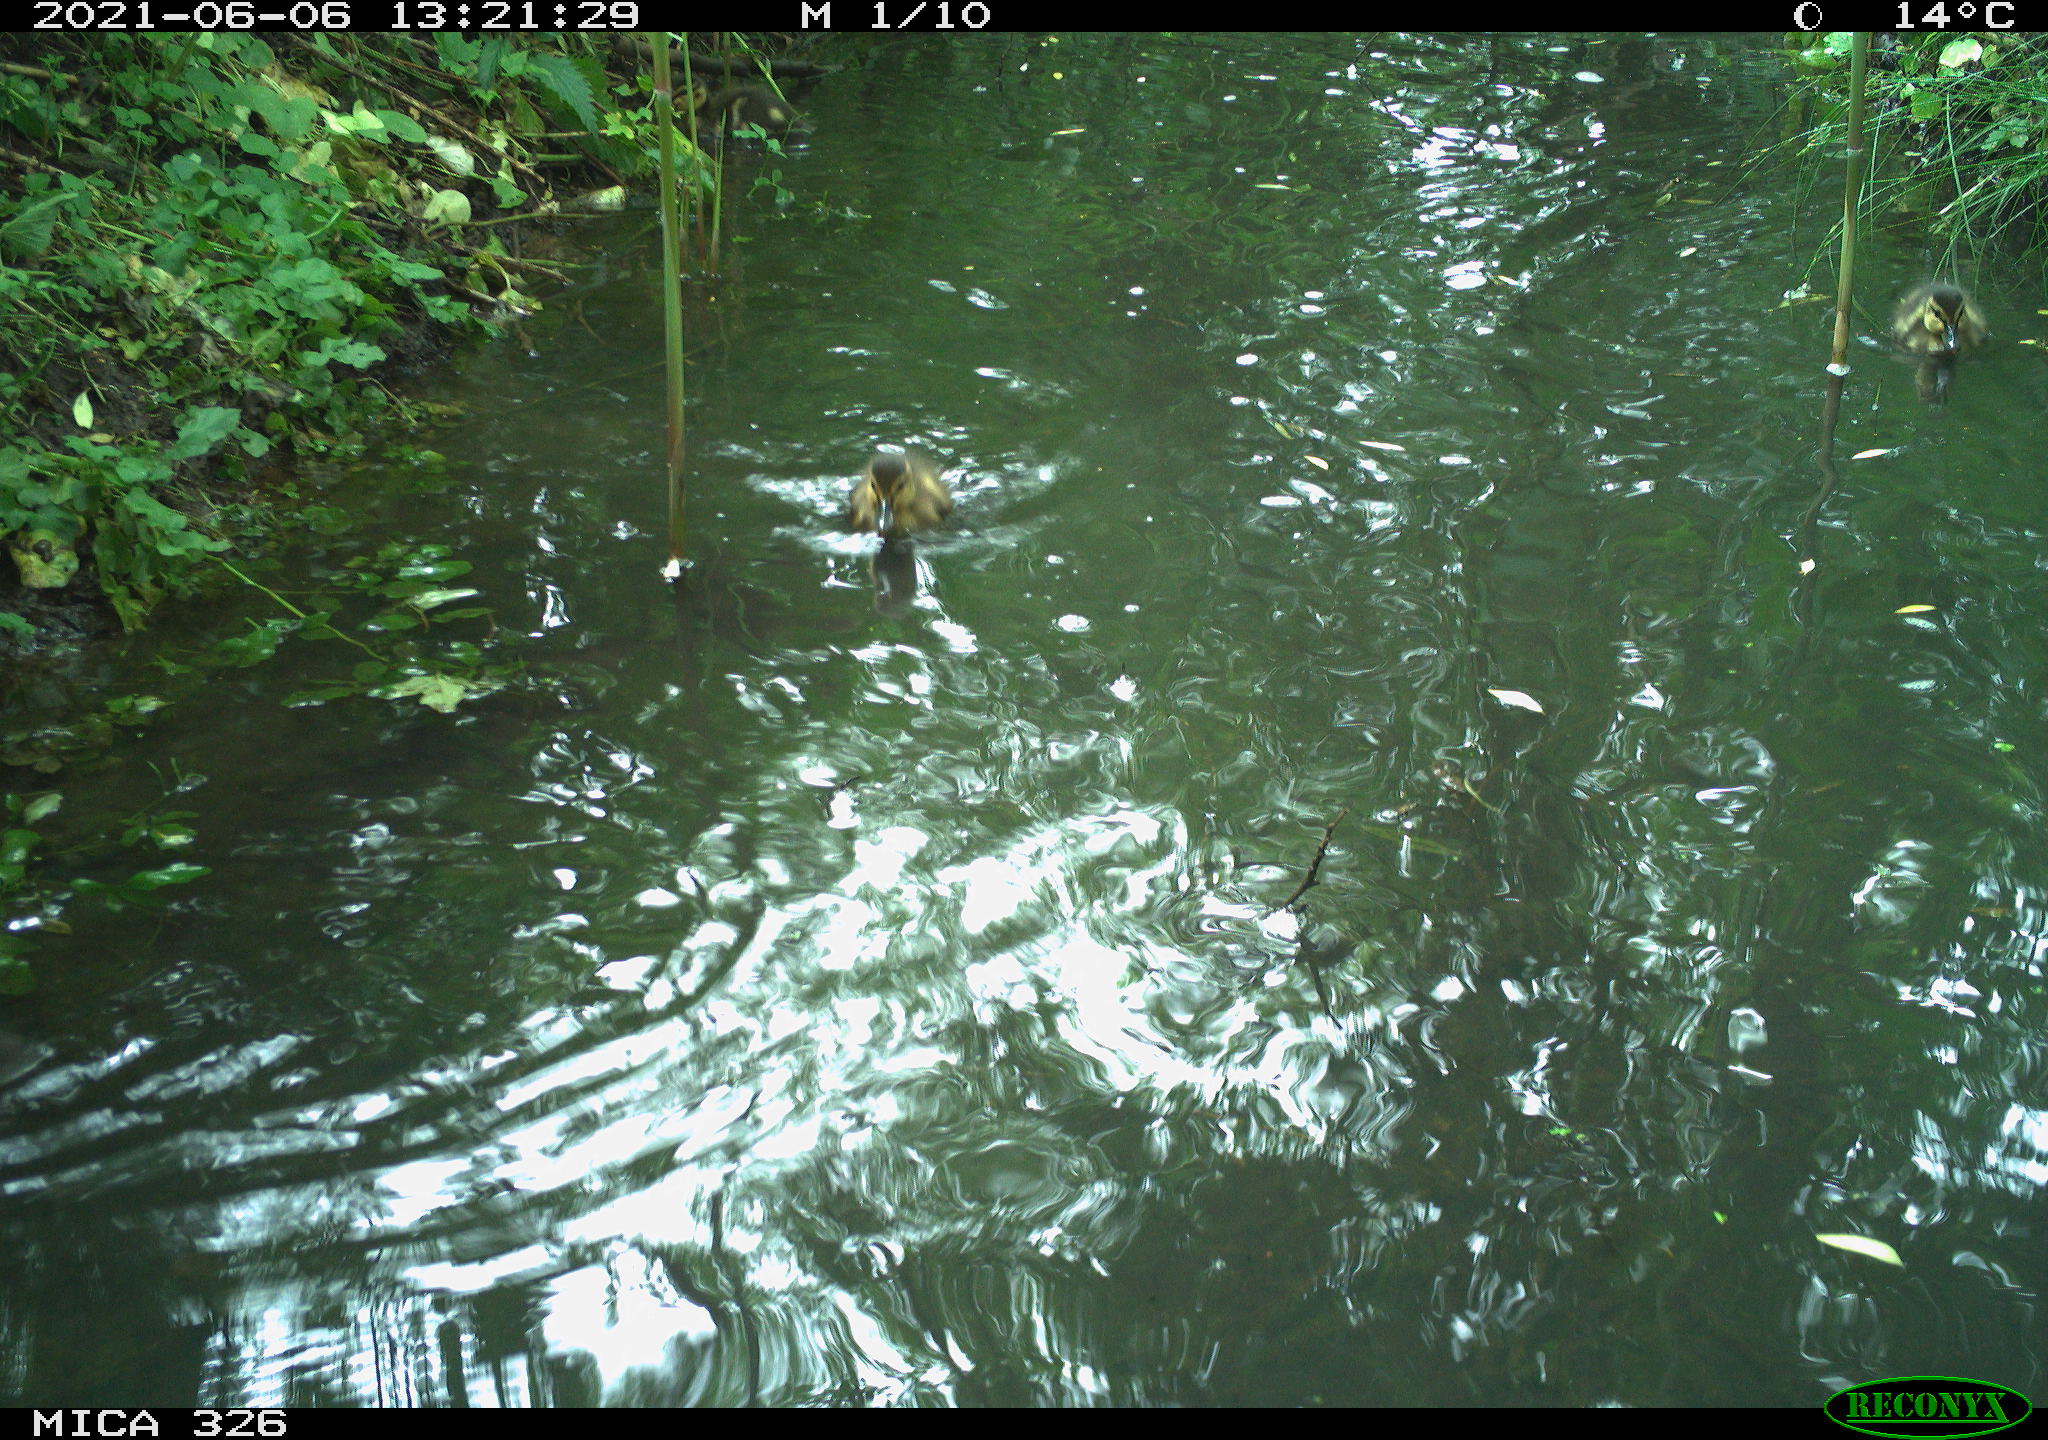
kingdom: Animalia
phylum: Chordata
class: Aves
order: Anseriformes
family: Anatidae
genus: Anas
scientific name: Anas platyrhynchos
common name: Mallard
